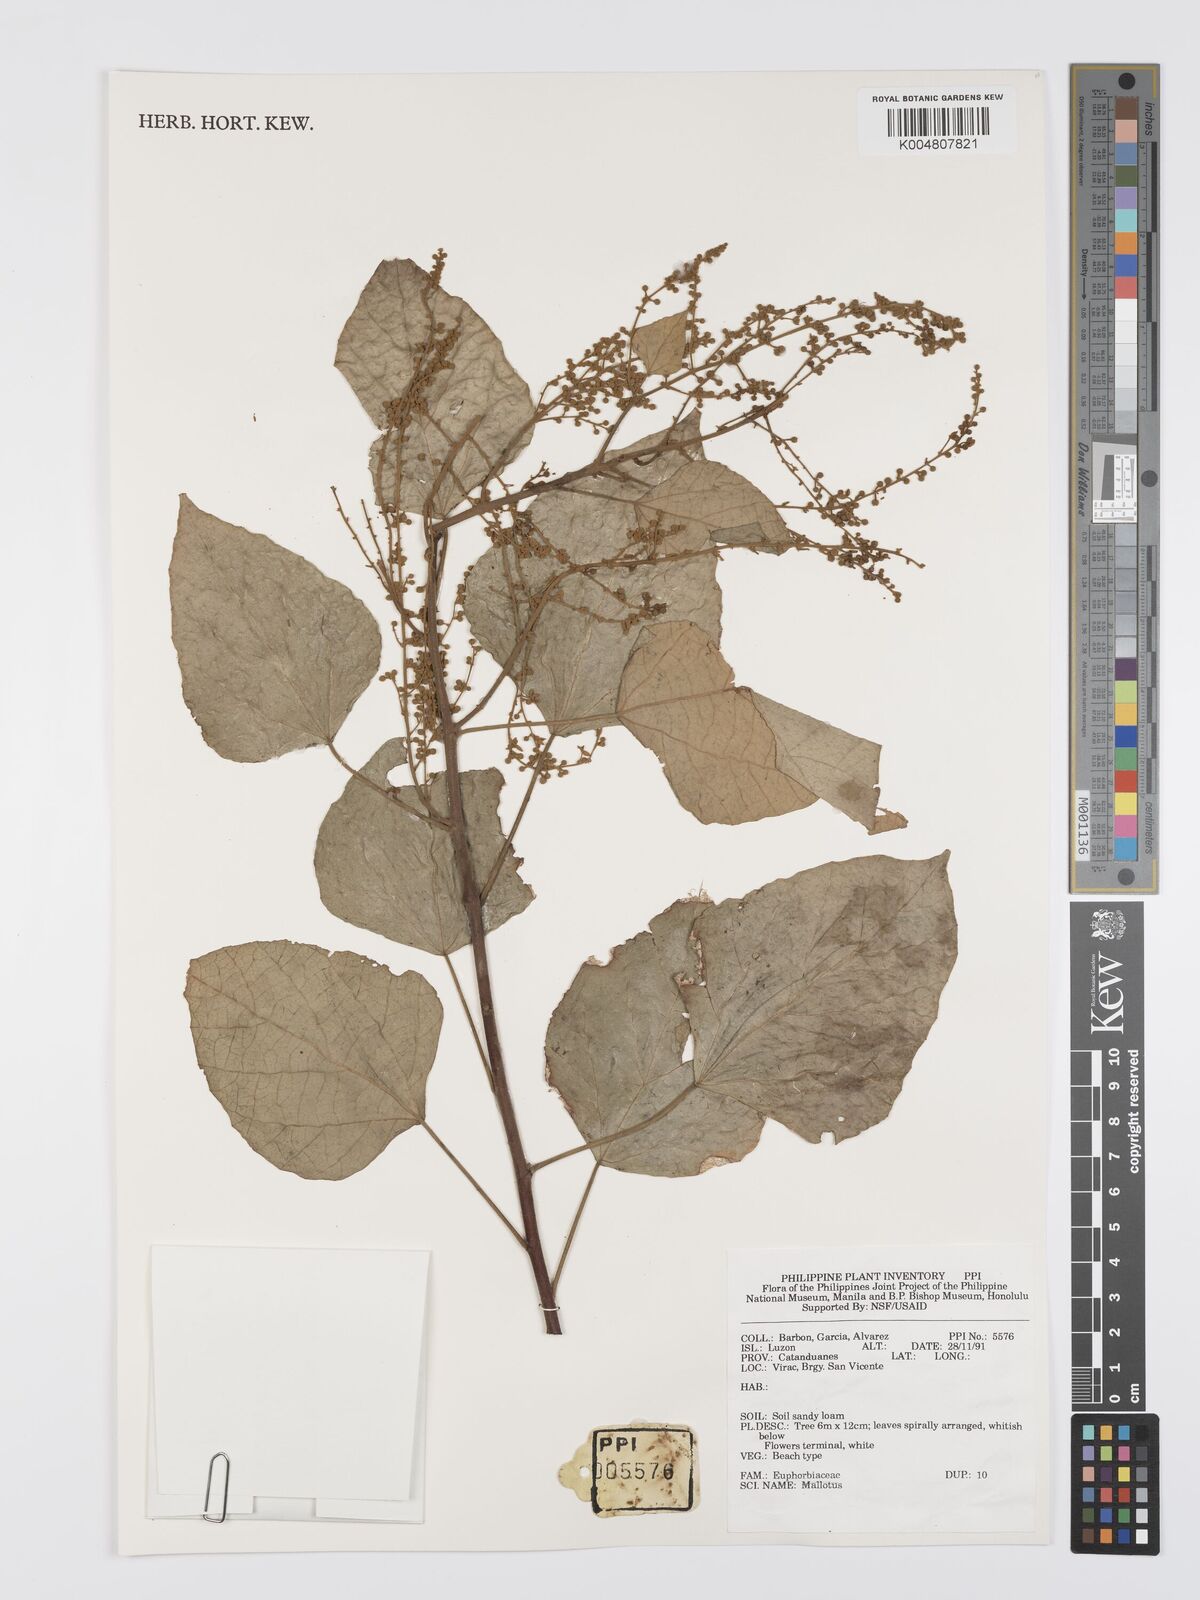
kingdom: Plantae
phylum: Tracheophyta
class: Magnoliopsida
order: Malpighiales
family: Euphorbiaceae
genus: Mallotus
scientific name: Mallotus
